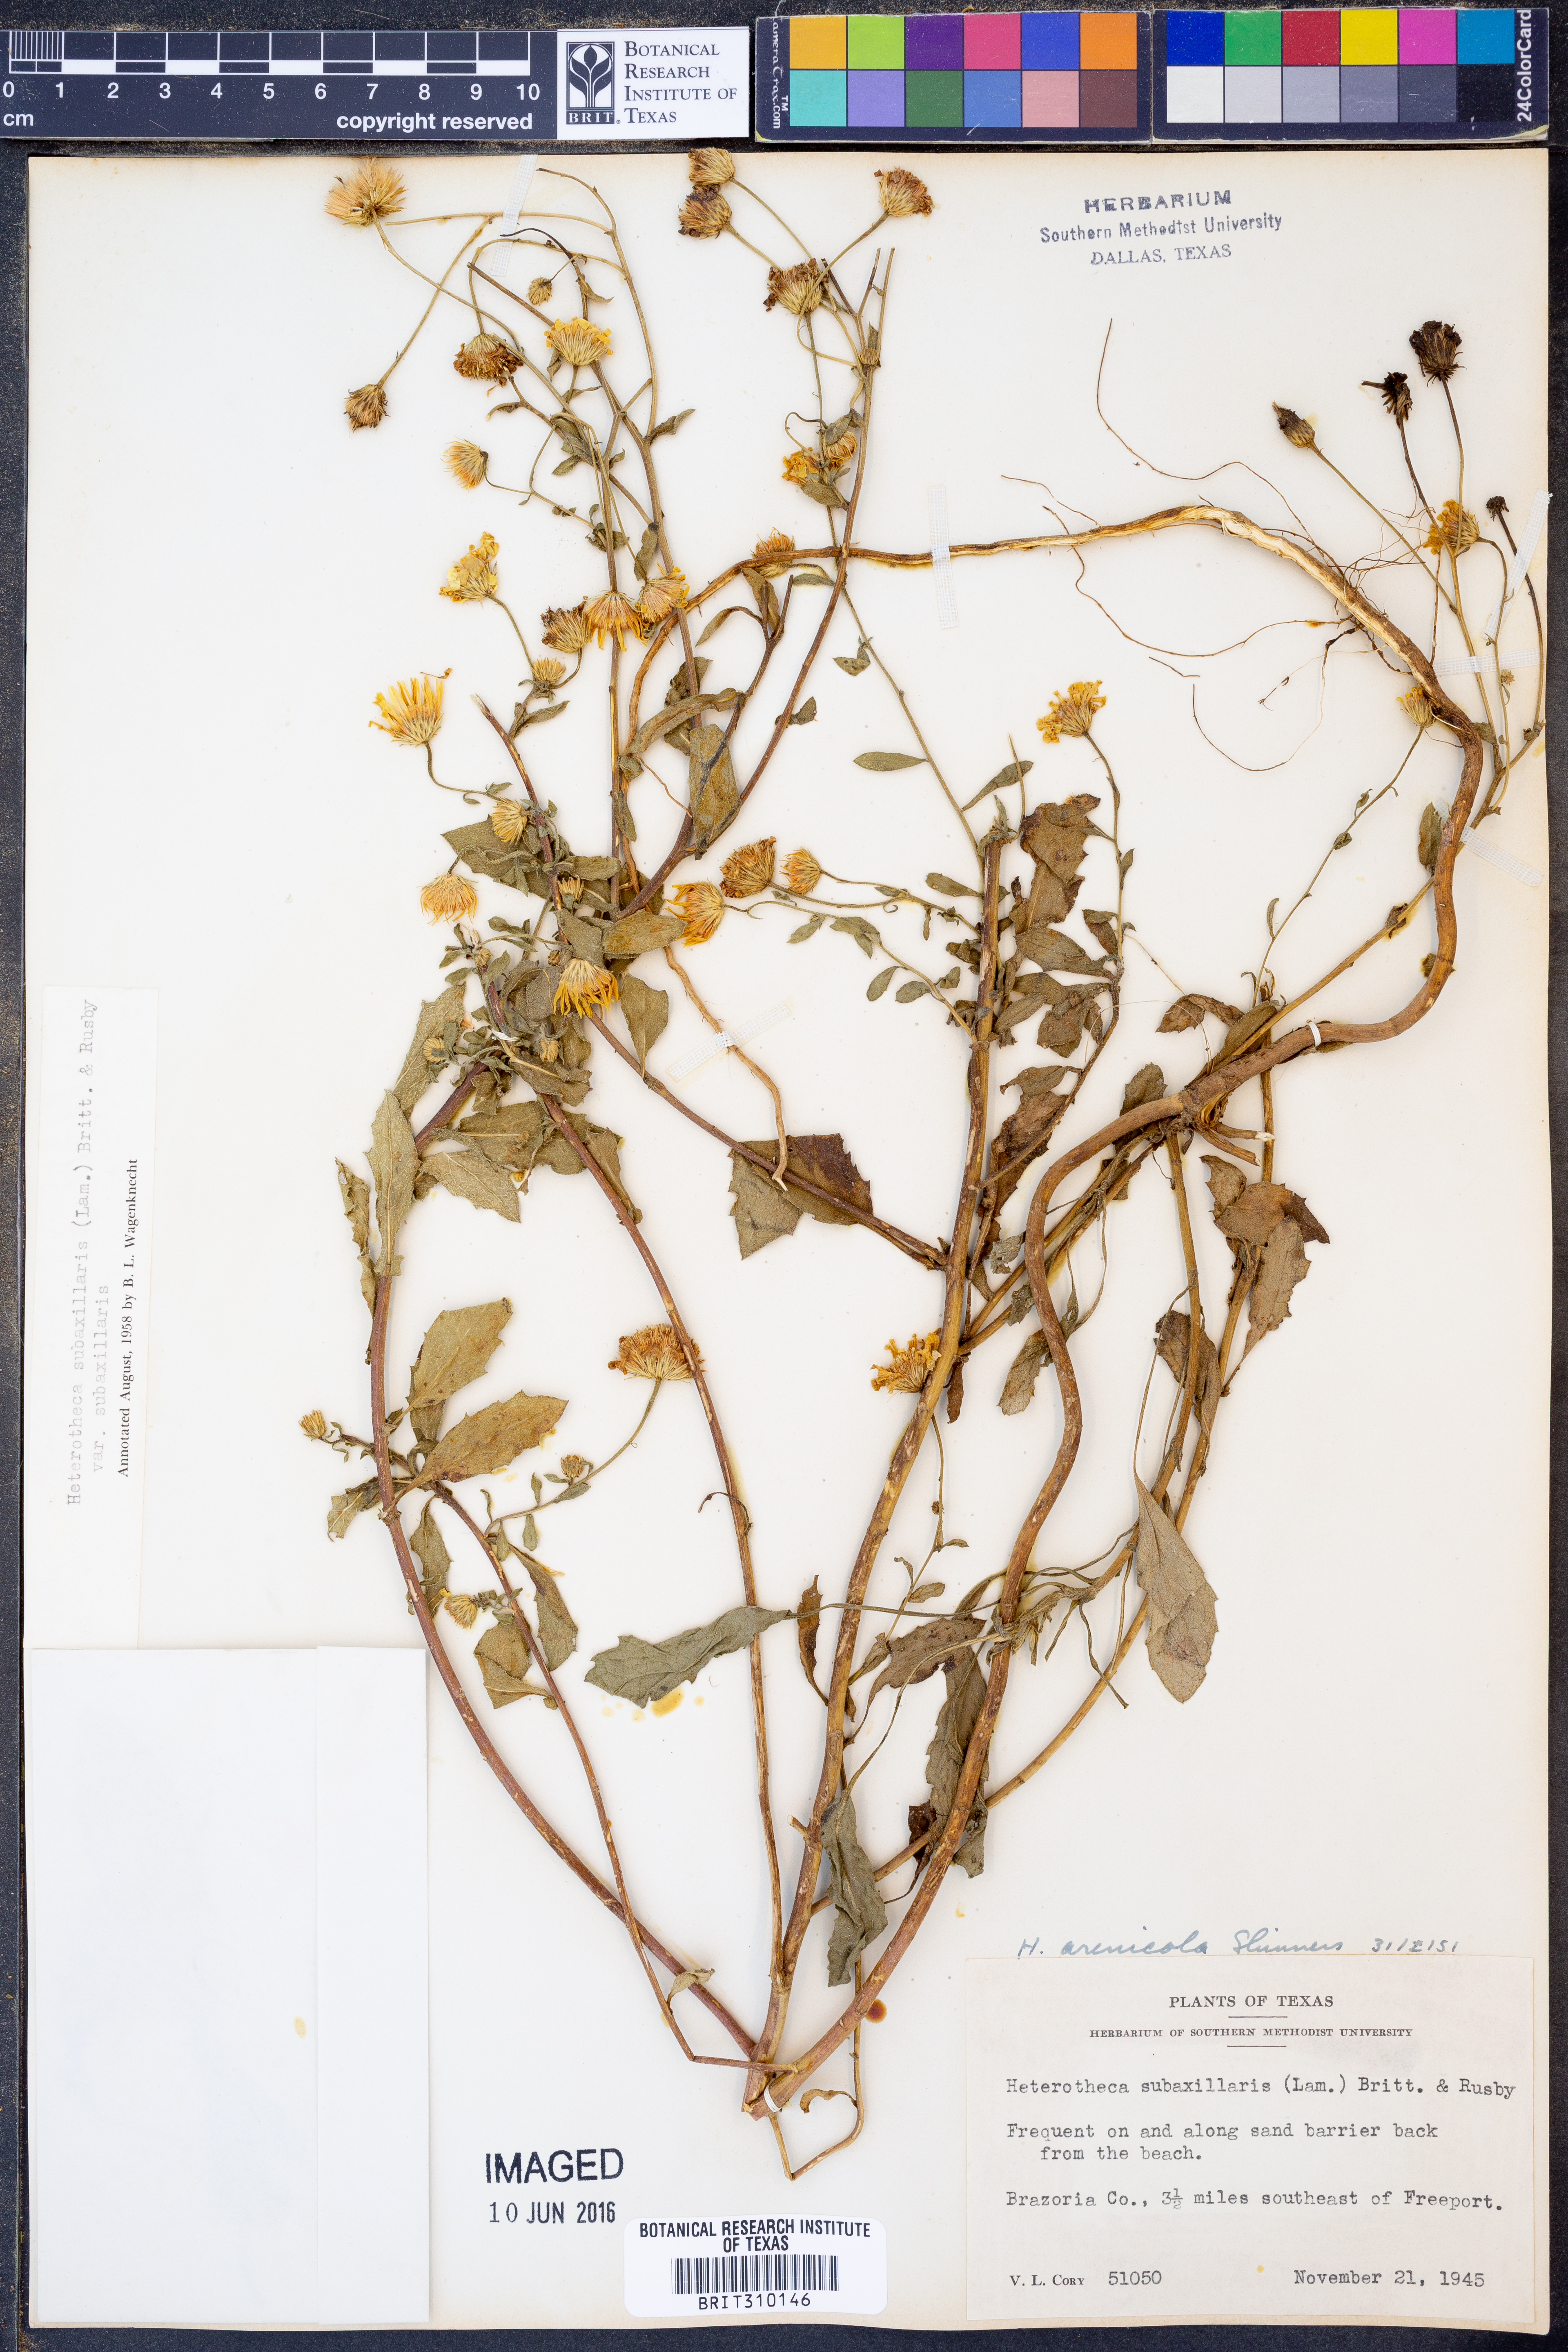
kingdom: Plantae
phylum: Tracheophyta
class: Magnoliopsida
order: Asterales
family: Asteraceae
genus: Heterotheca
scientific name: Heterotheca subaxillaris
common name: Camphorweed
